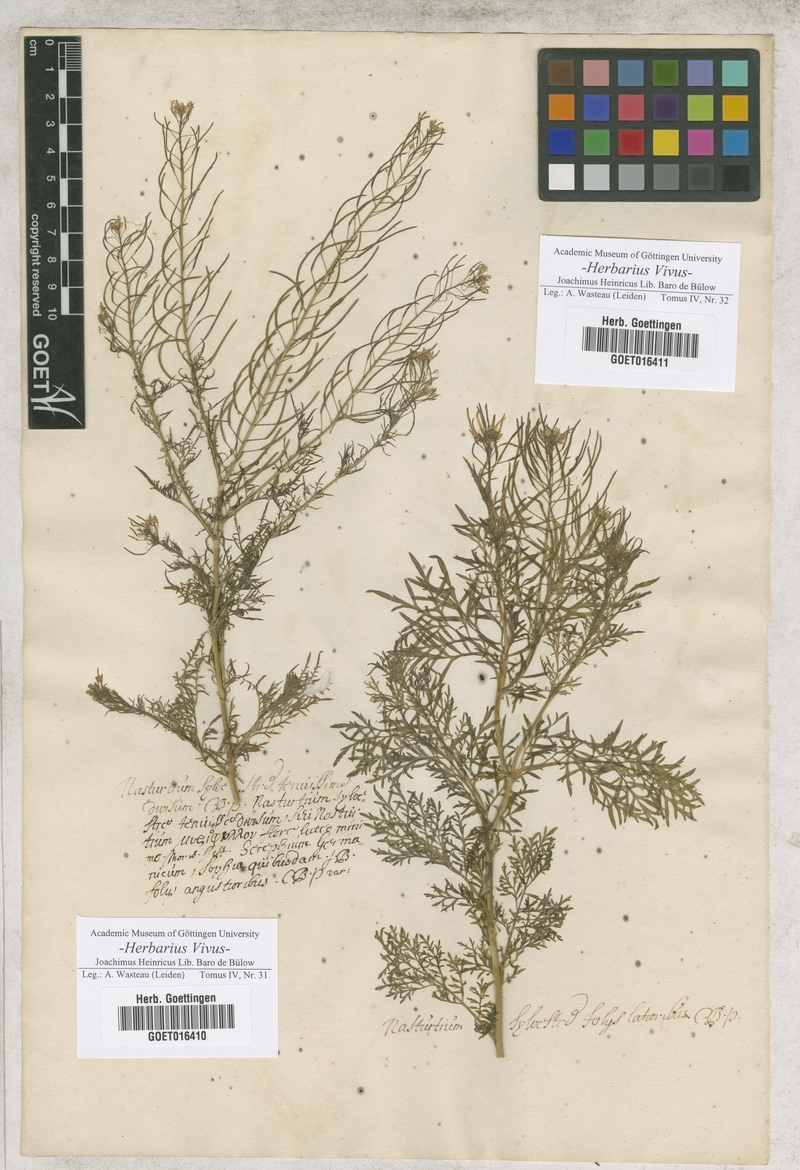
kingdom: Plantae
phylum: Tracheophyta
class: Magnoliopsida
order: Brassicales
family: Brassicaceae
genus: Descurainia
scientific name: Descurainia sophia
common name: Flixweed
